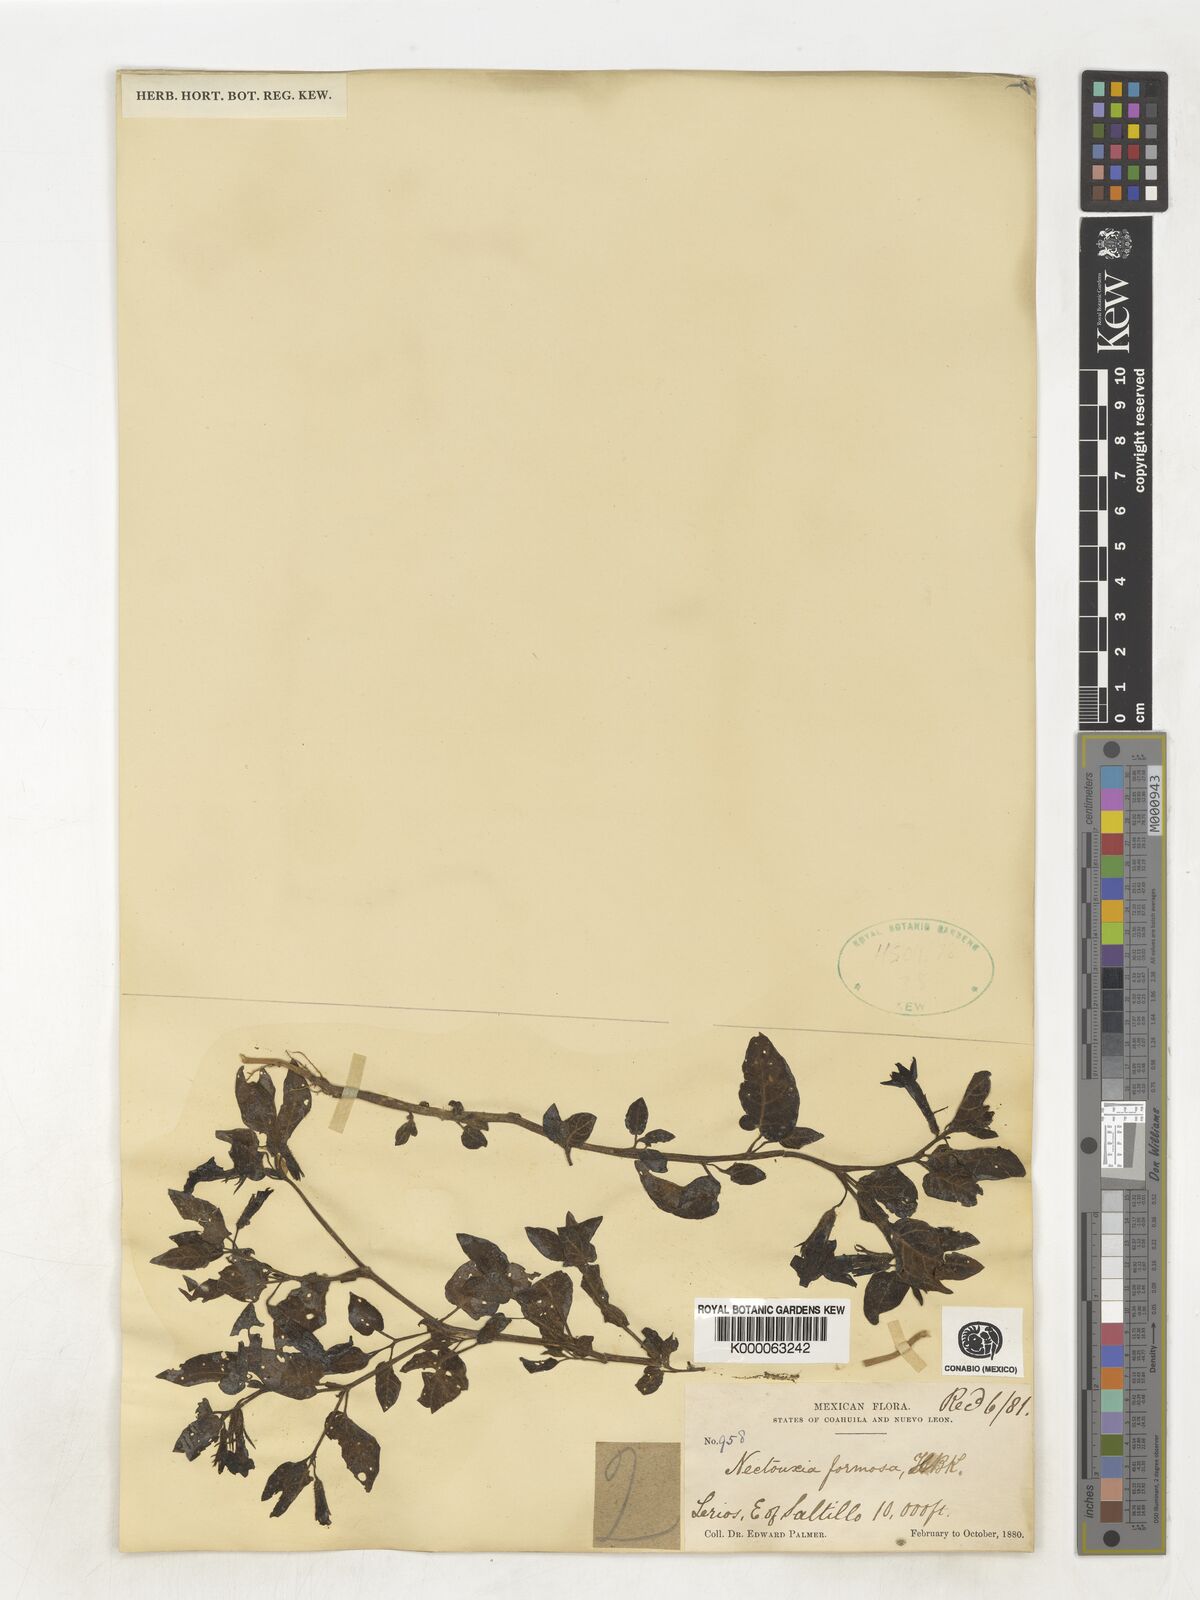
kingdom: Plantae
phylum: Tracheophyta
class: Magnoliopsida
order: Solanales
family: Solanaceae
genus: Nectouxia
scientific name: Nectouxia formosa
